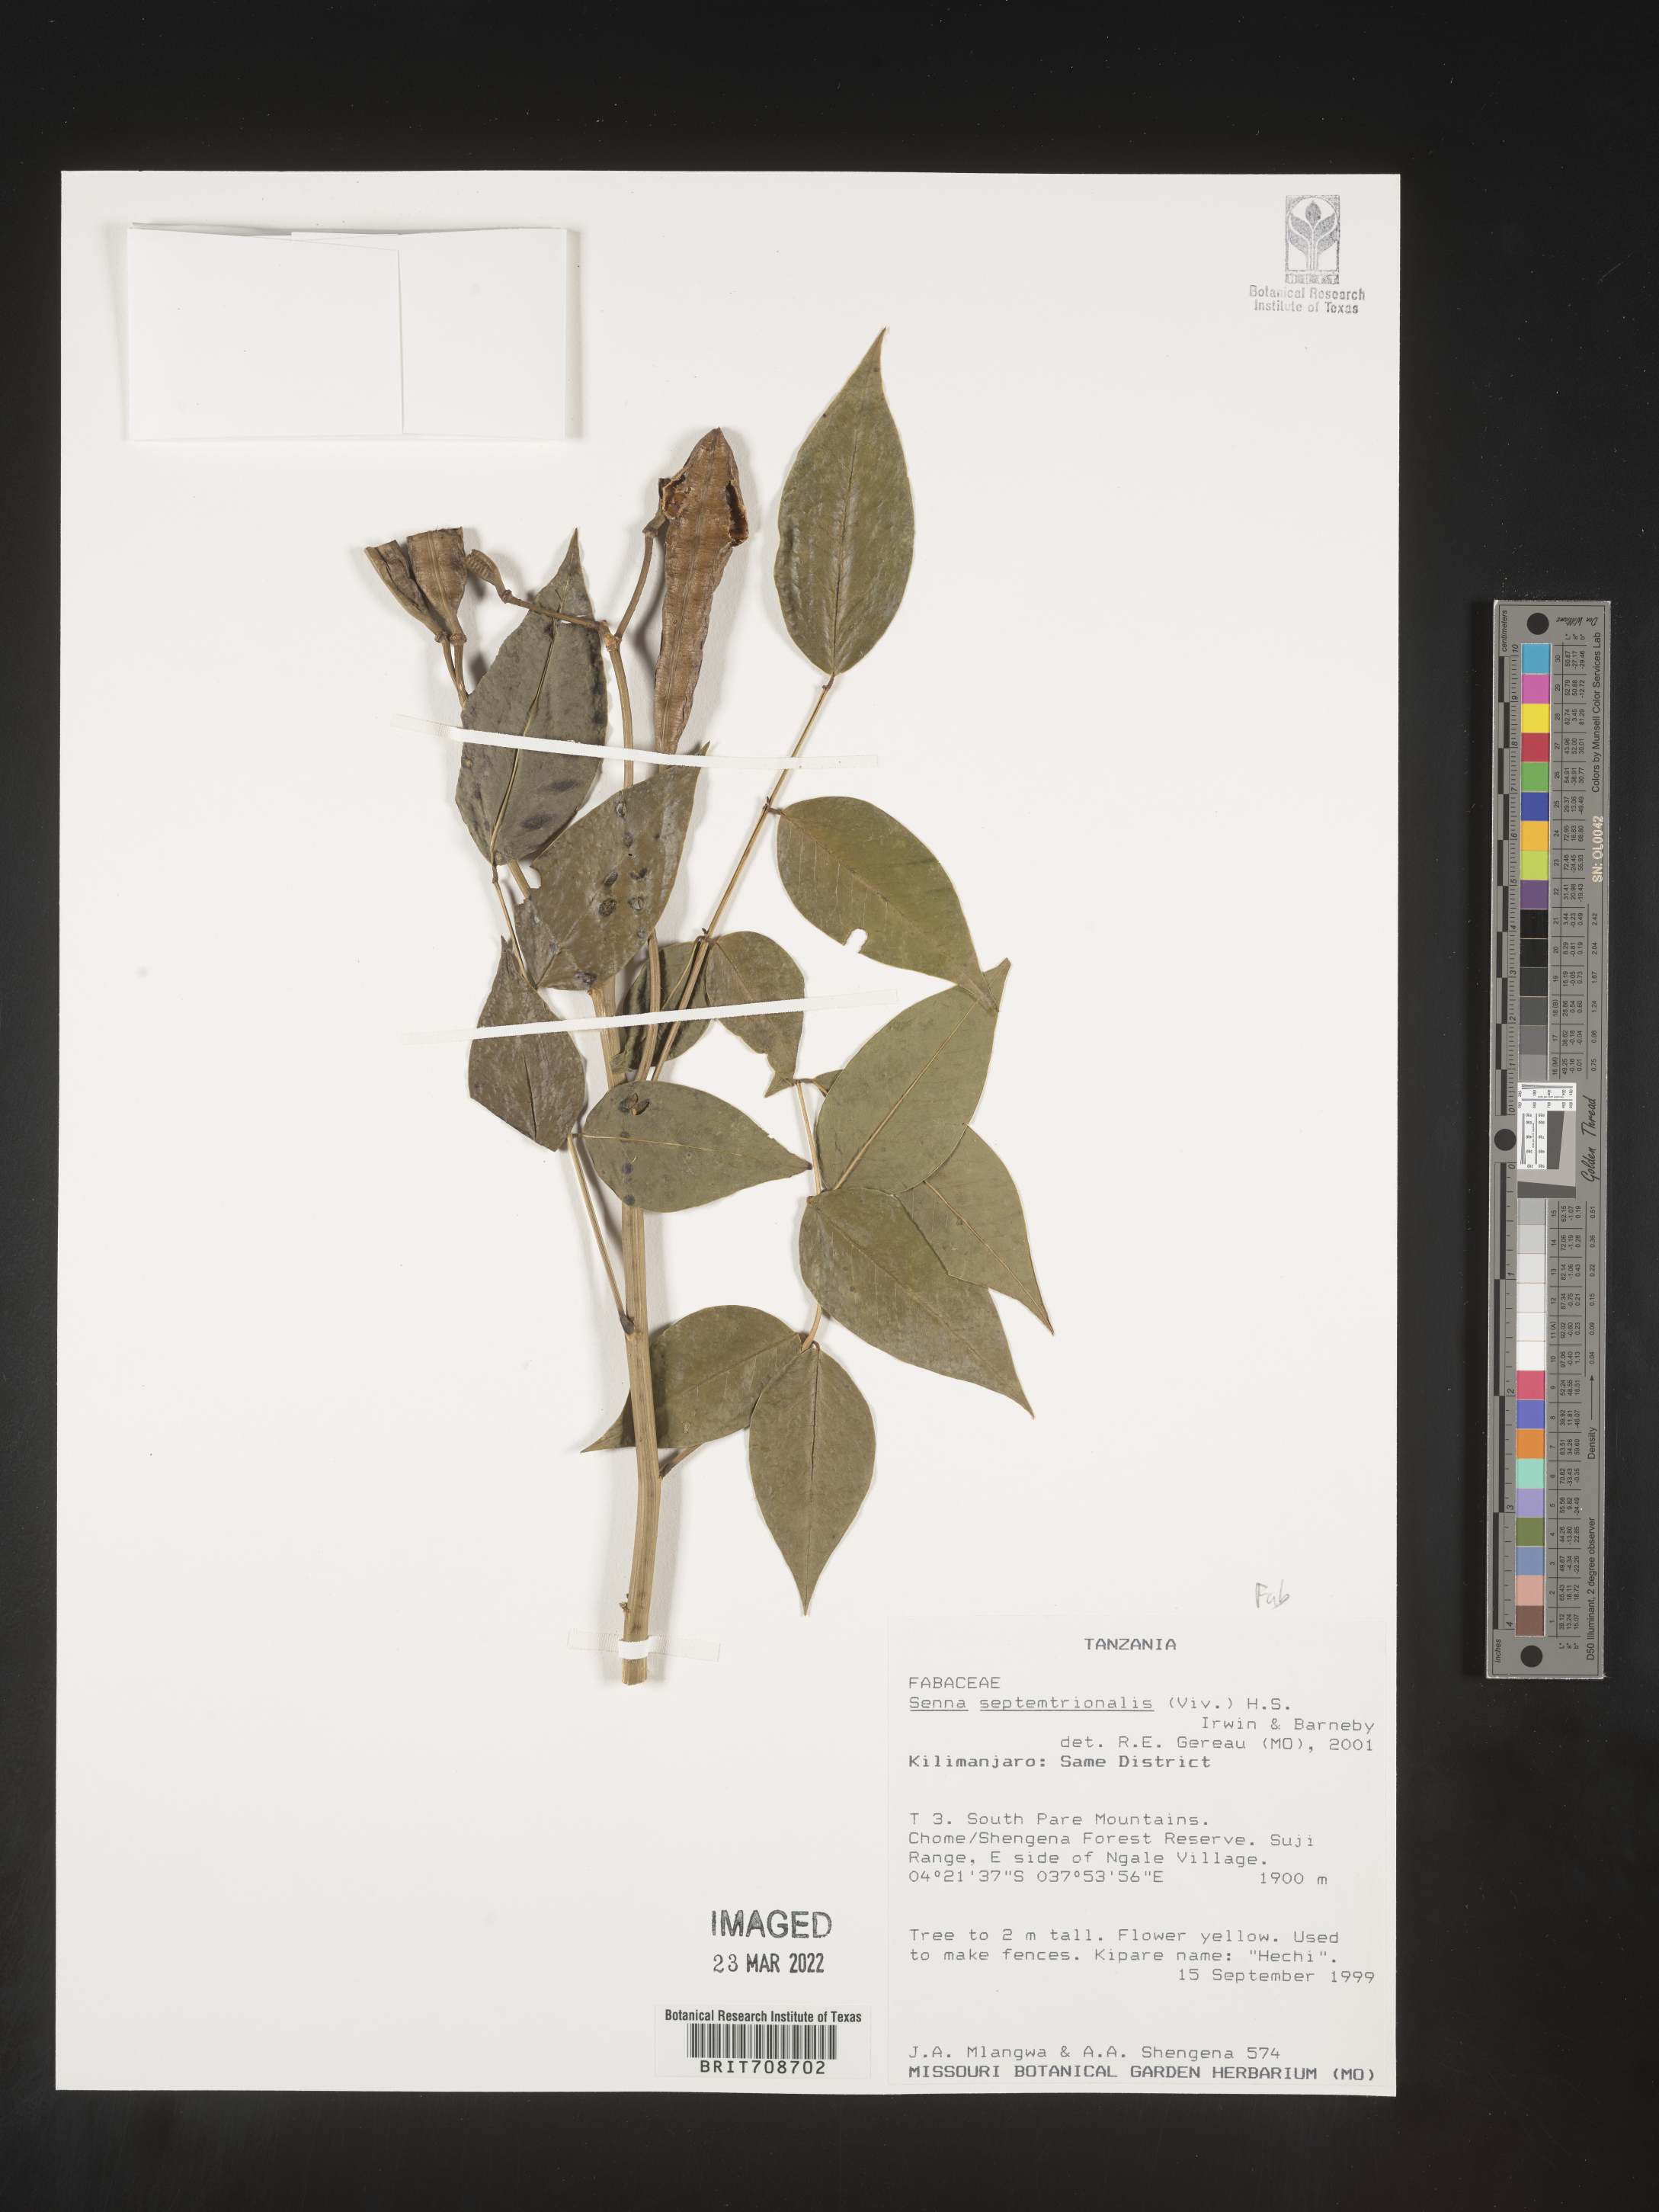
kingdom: Plantae
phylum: Tracheophyta
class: Magnoliopsida
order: Fabales
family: Fabaceae
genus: Senna
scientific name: Senna
